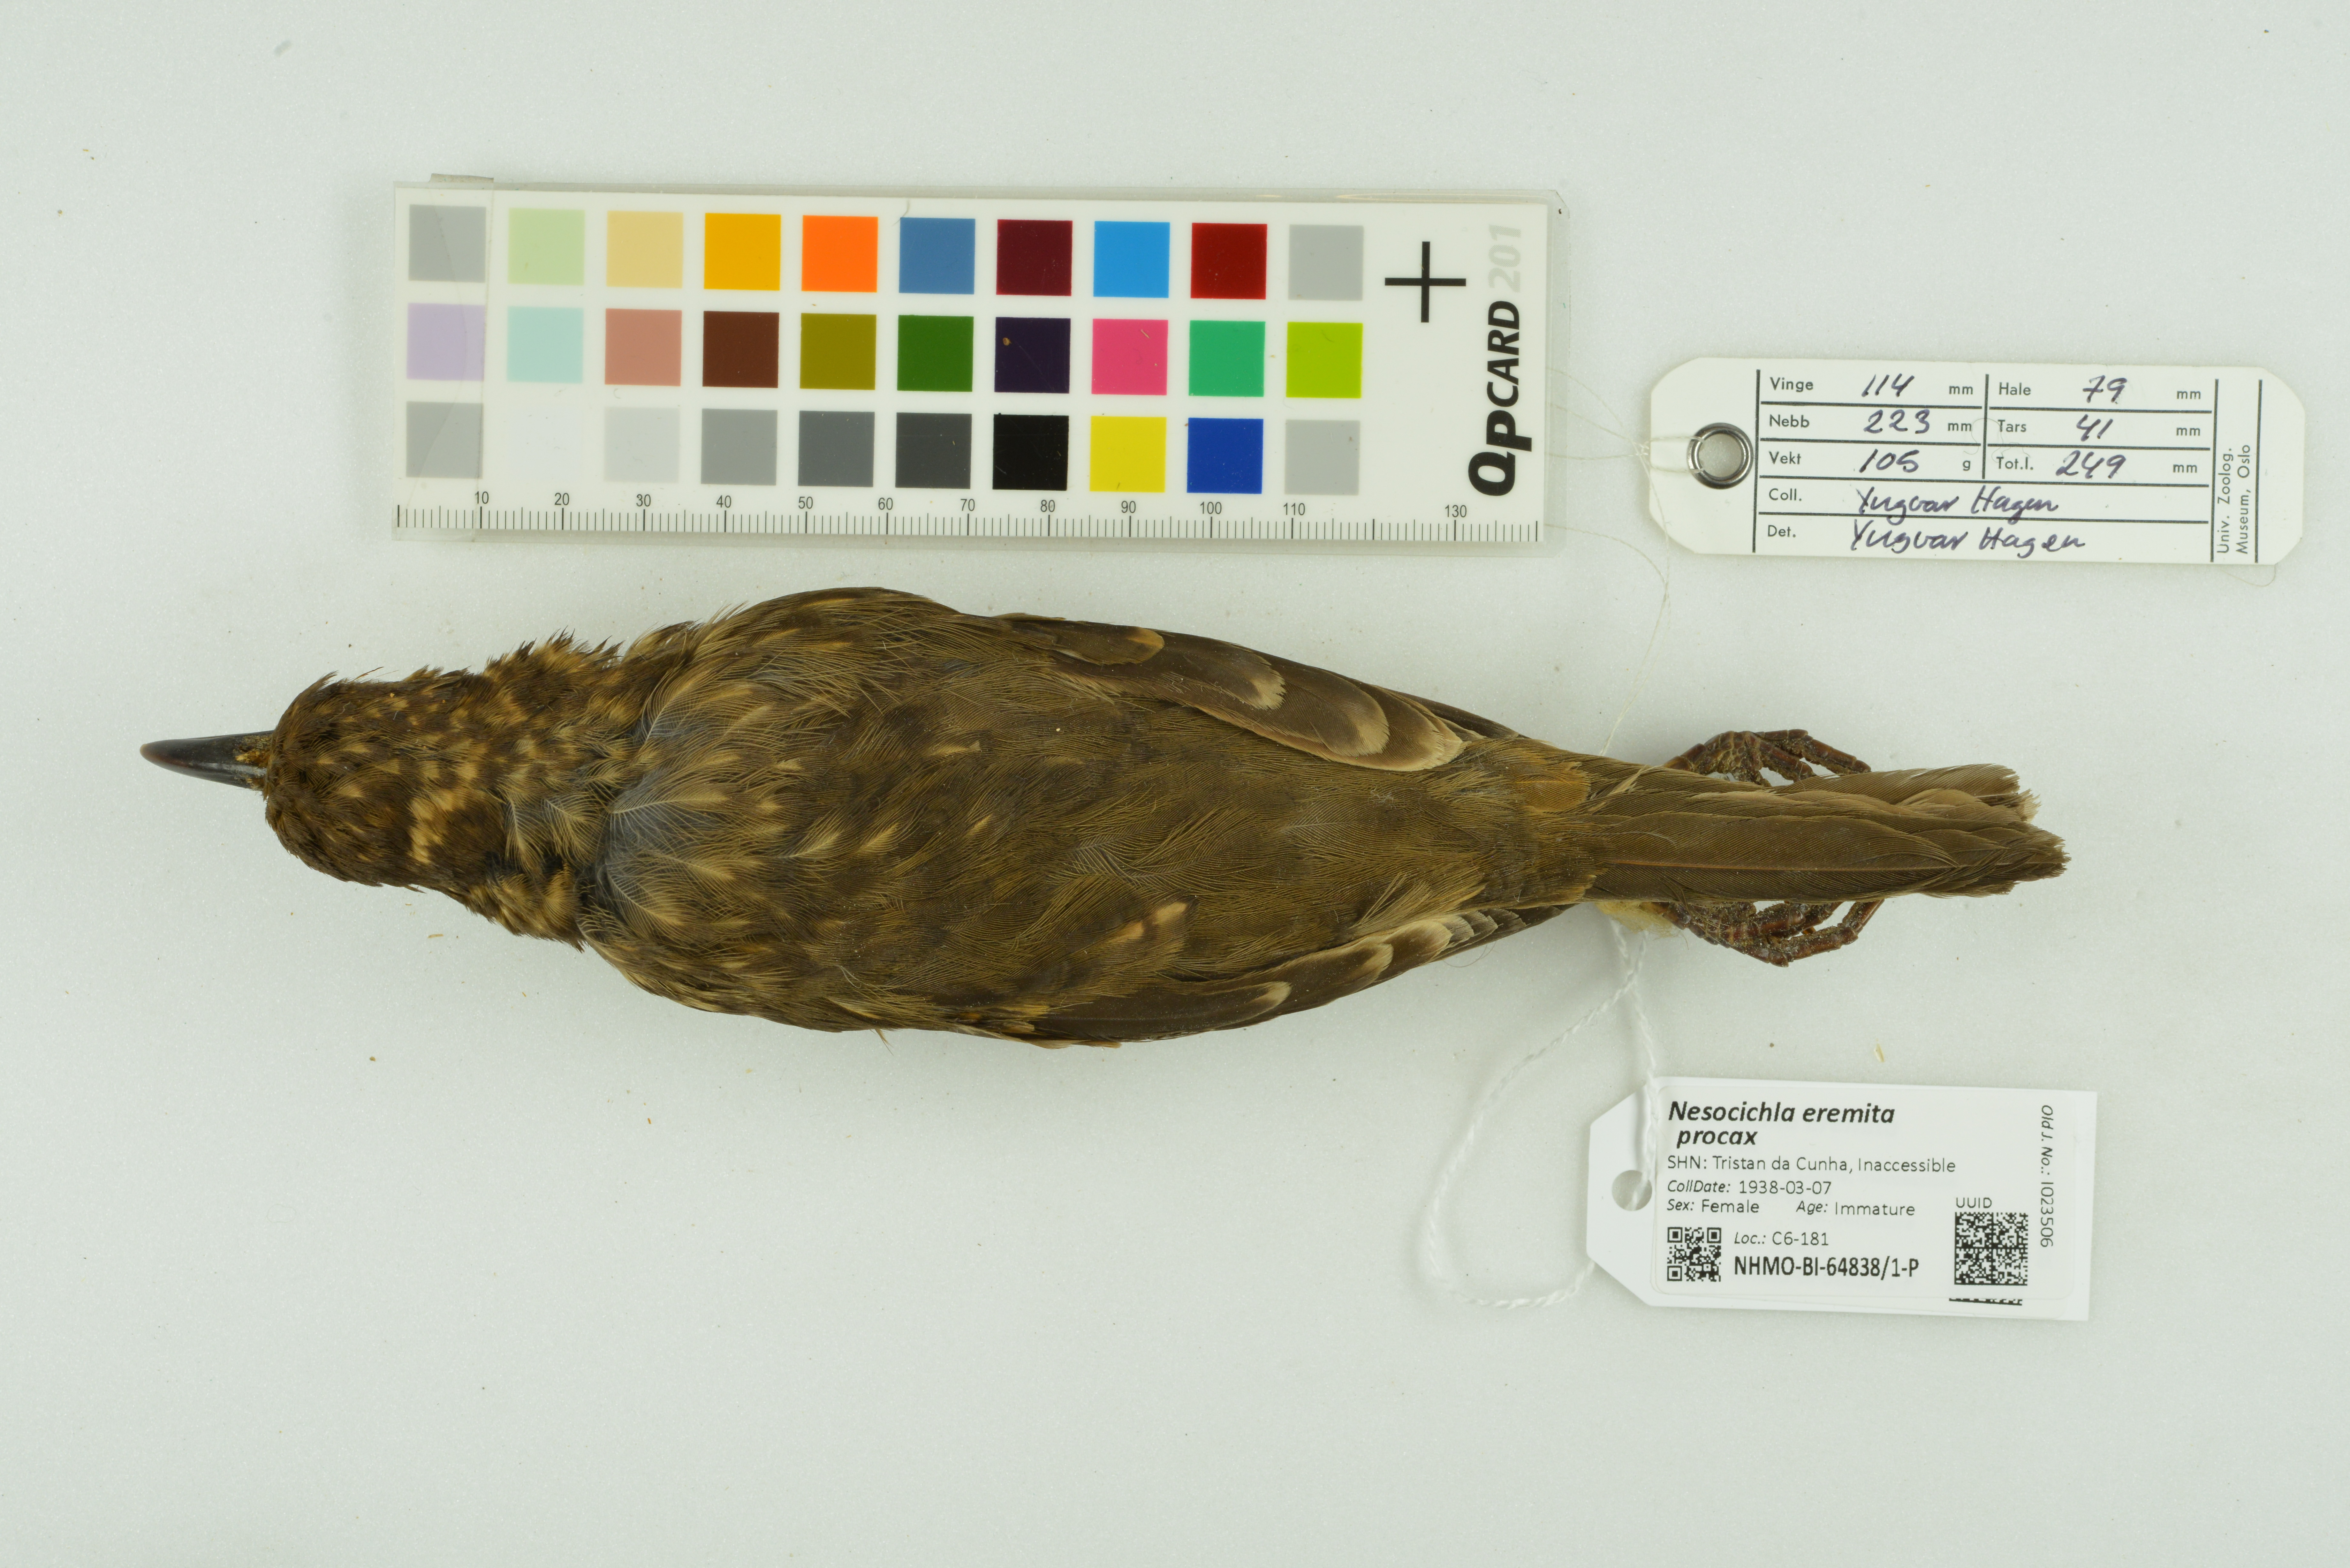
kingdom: Animalia
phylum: Chordata
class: Aves
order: Passeriformes
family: Turdidae
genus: Nesocichla
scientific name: Nesocichla eremita
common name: Tristan thrush
